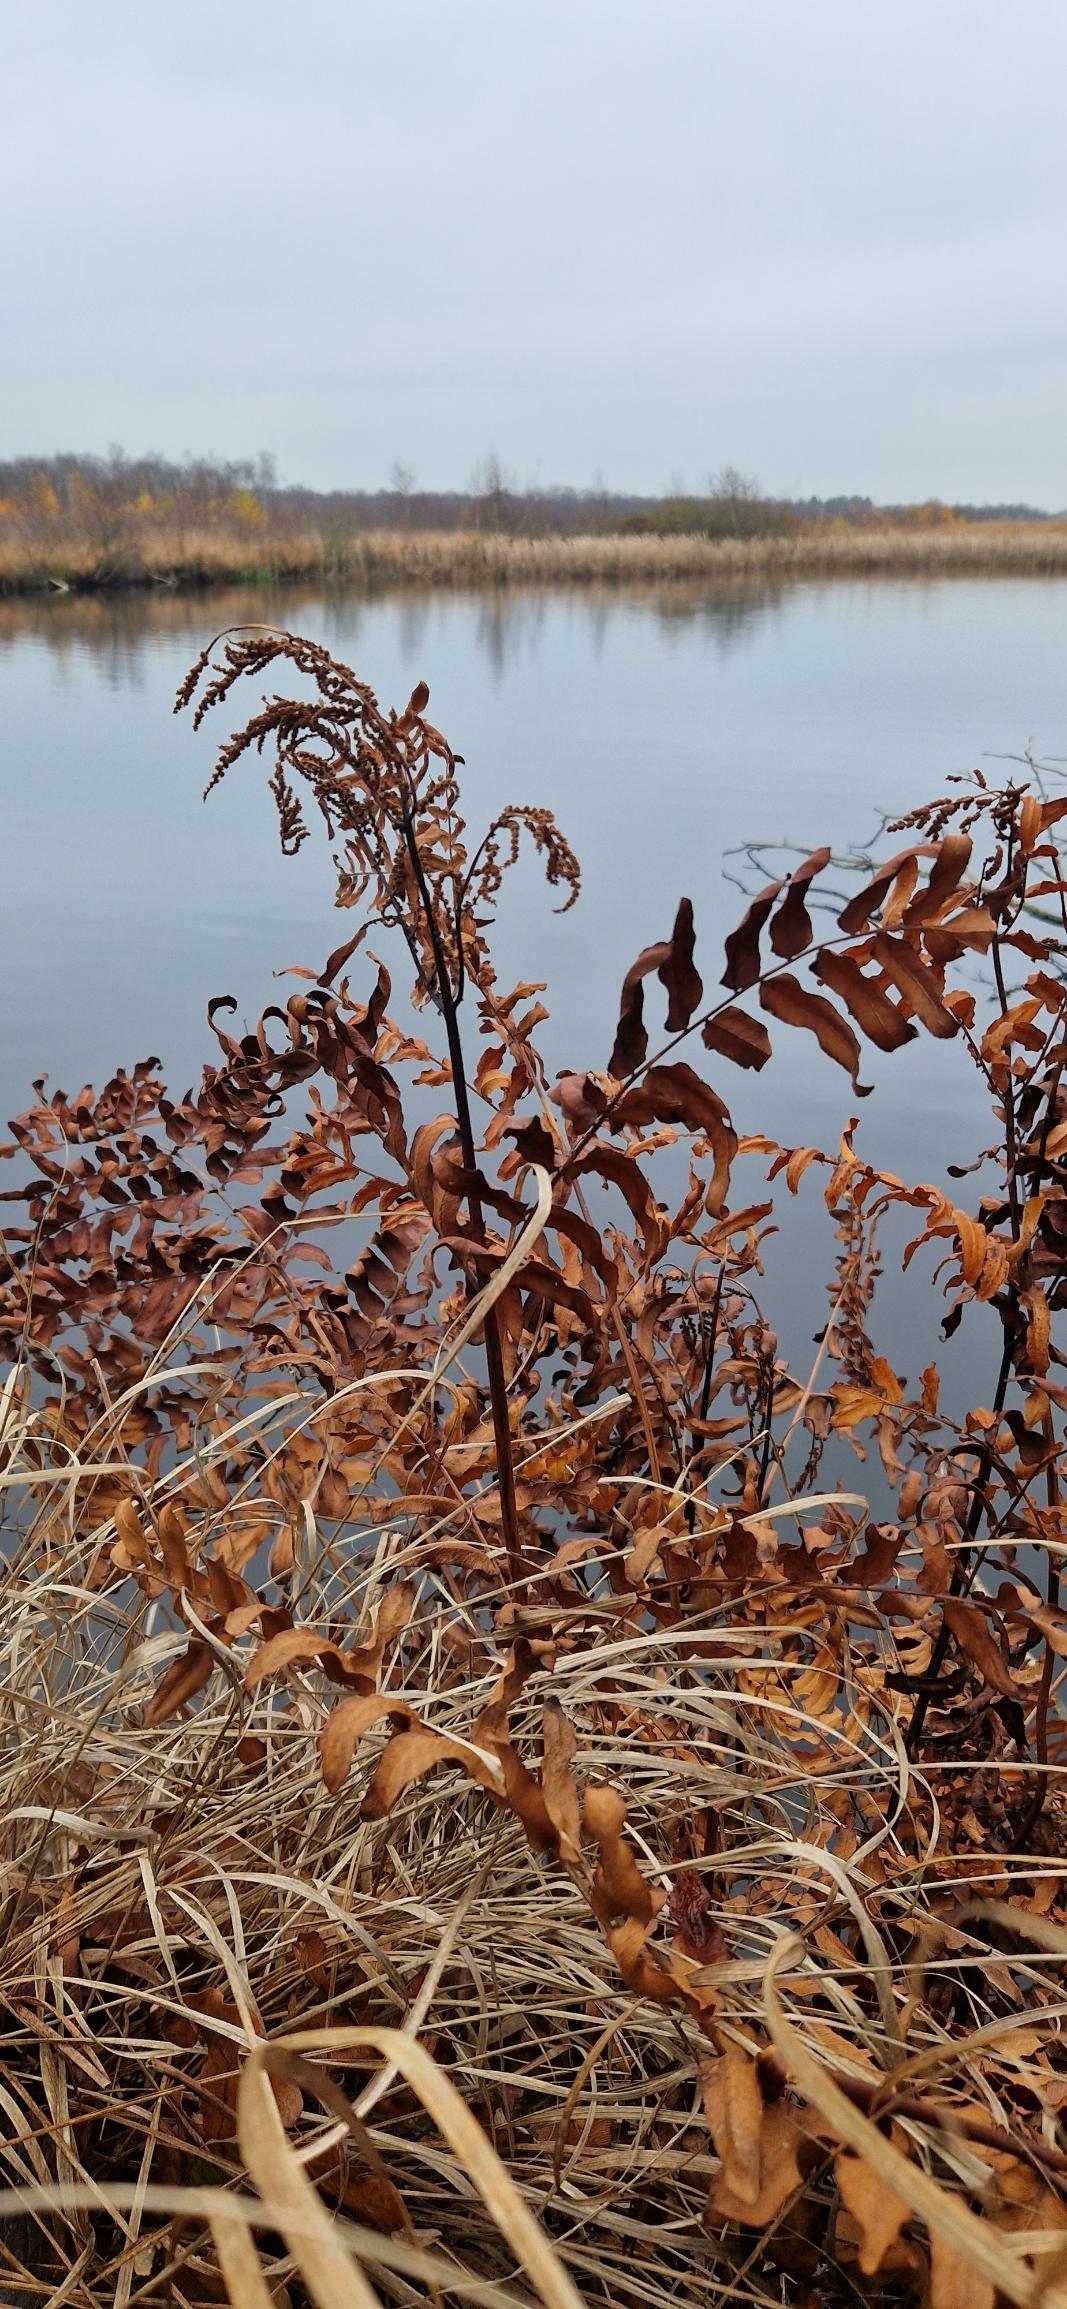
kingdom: Plantae
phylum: Tracheophyta
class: Polypodiopsida
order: Osmundales
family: Osmundaceae
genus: Osmunda
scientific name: Osmunda regalis
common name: Kongebregne
